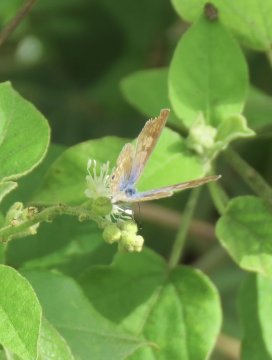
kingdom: Animalia
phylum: Arthropoda
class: Insecta
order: Lepidoptera
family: Lycaenidae
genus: Leptotes
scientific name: Leptotes marina
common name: Marine Blue
